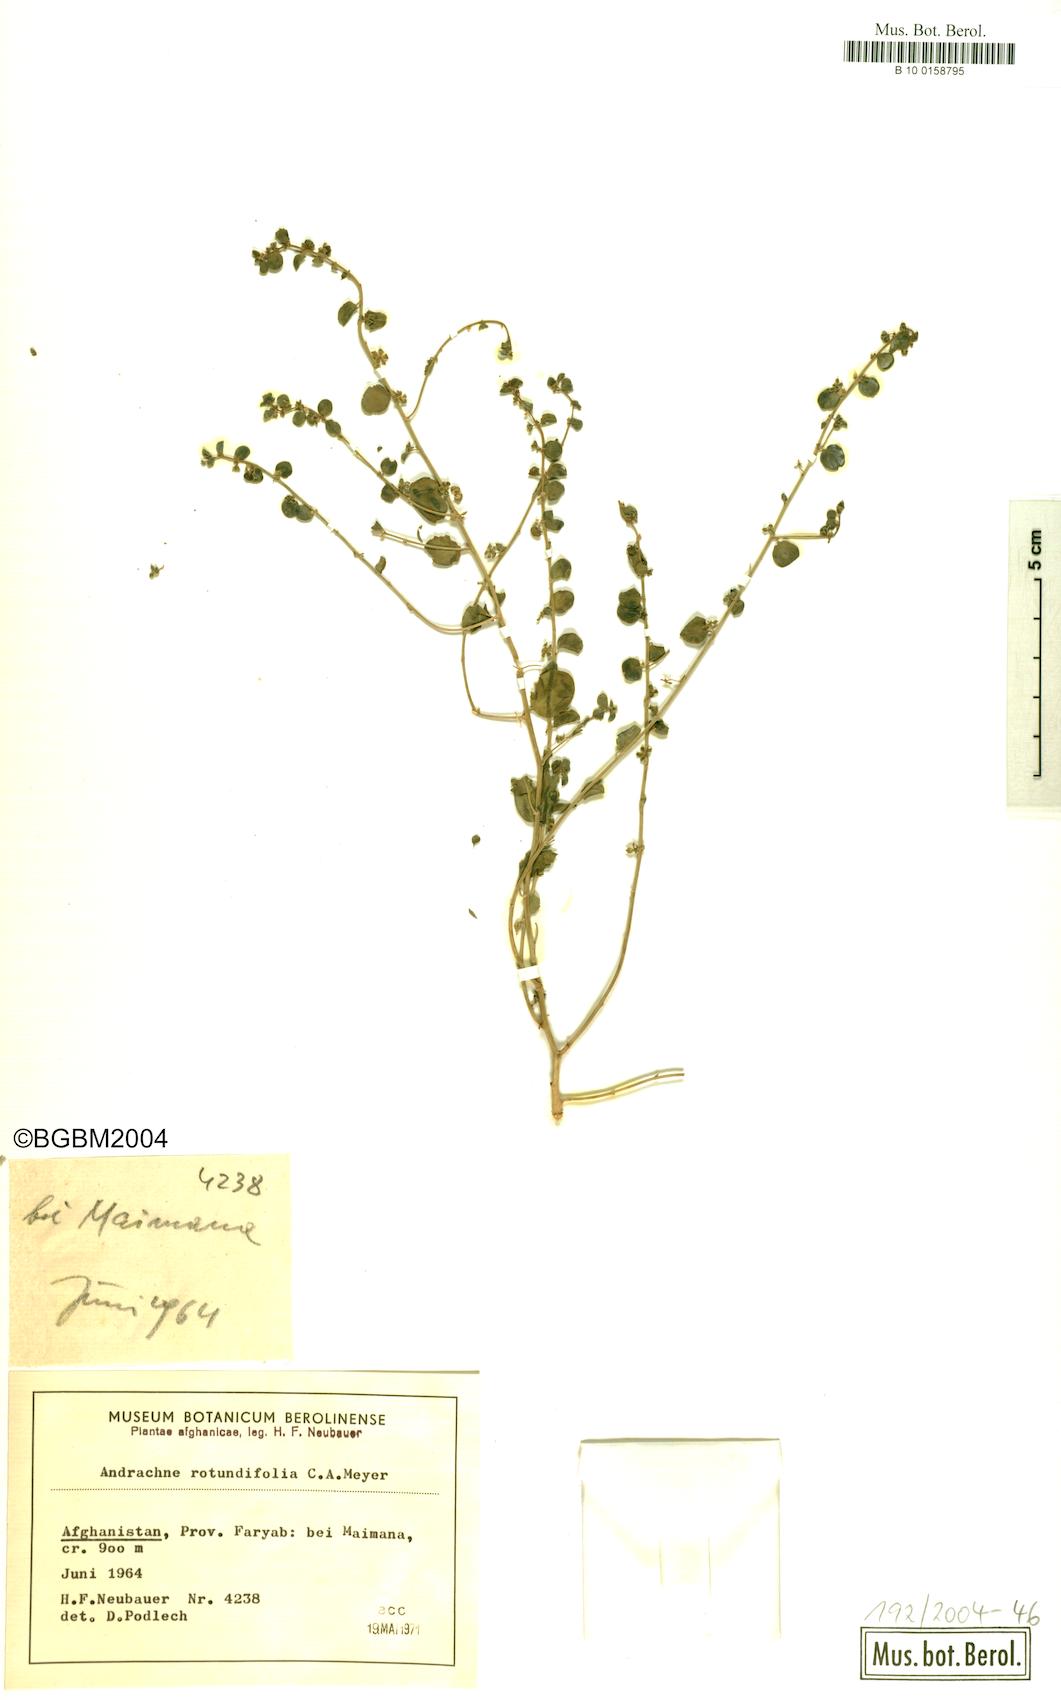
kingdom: Plantae
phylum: Tracheophyta
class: Magnoliopsida
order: Malpighiales
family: Phyllanthaceae
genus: Andrachne
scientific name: Andrachne telephioides
